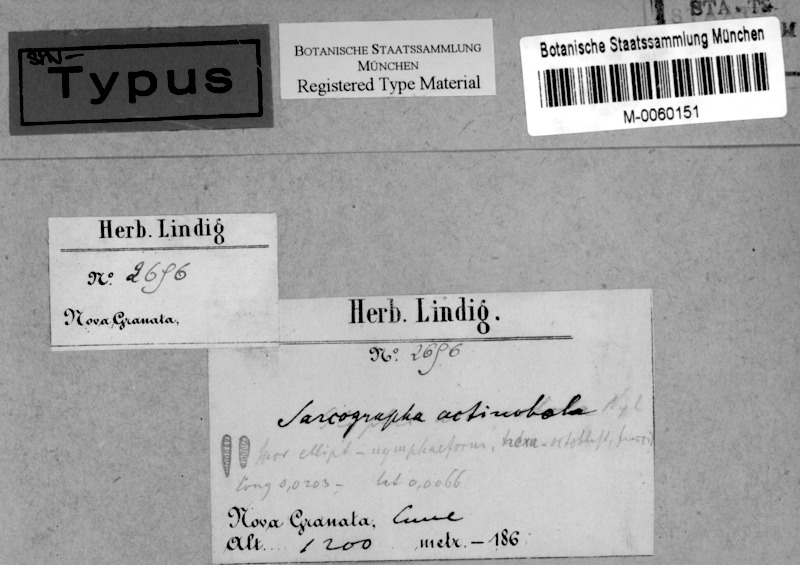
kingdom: Fungi
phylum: Ascomycota
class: Lecanoromycetes
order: Ostropales
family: Graphidaceae
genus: Sarcographa
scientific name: Sarcographa actinobola
